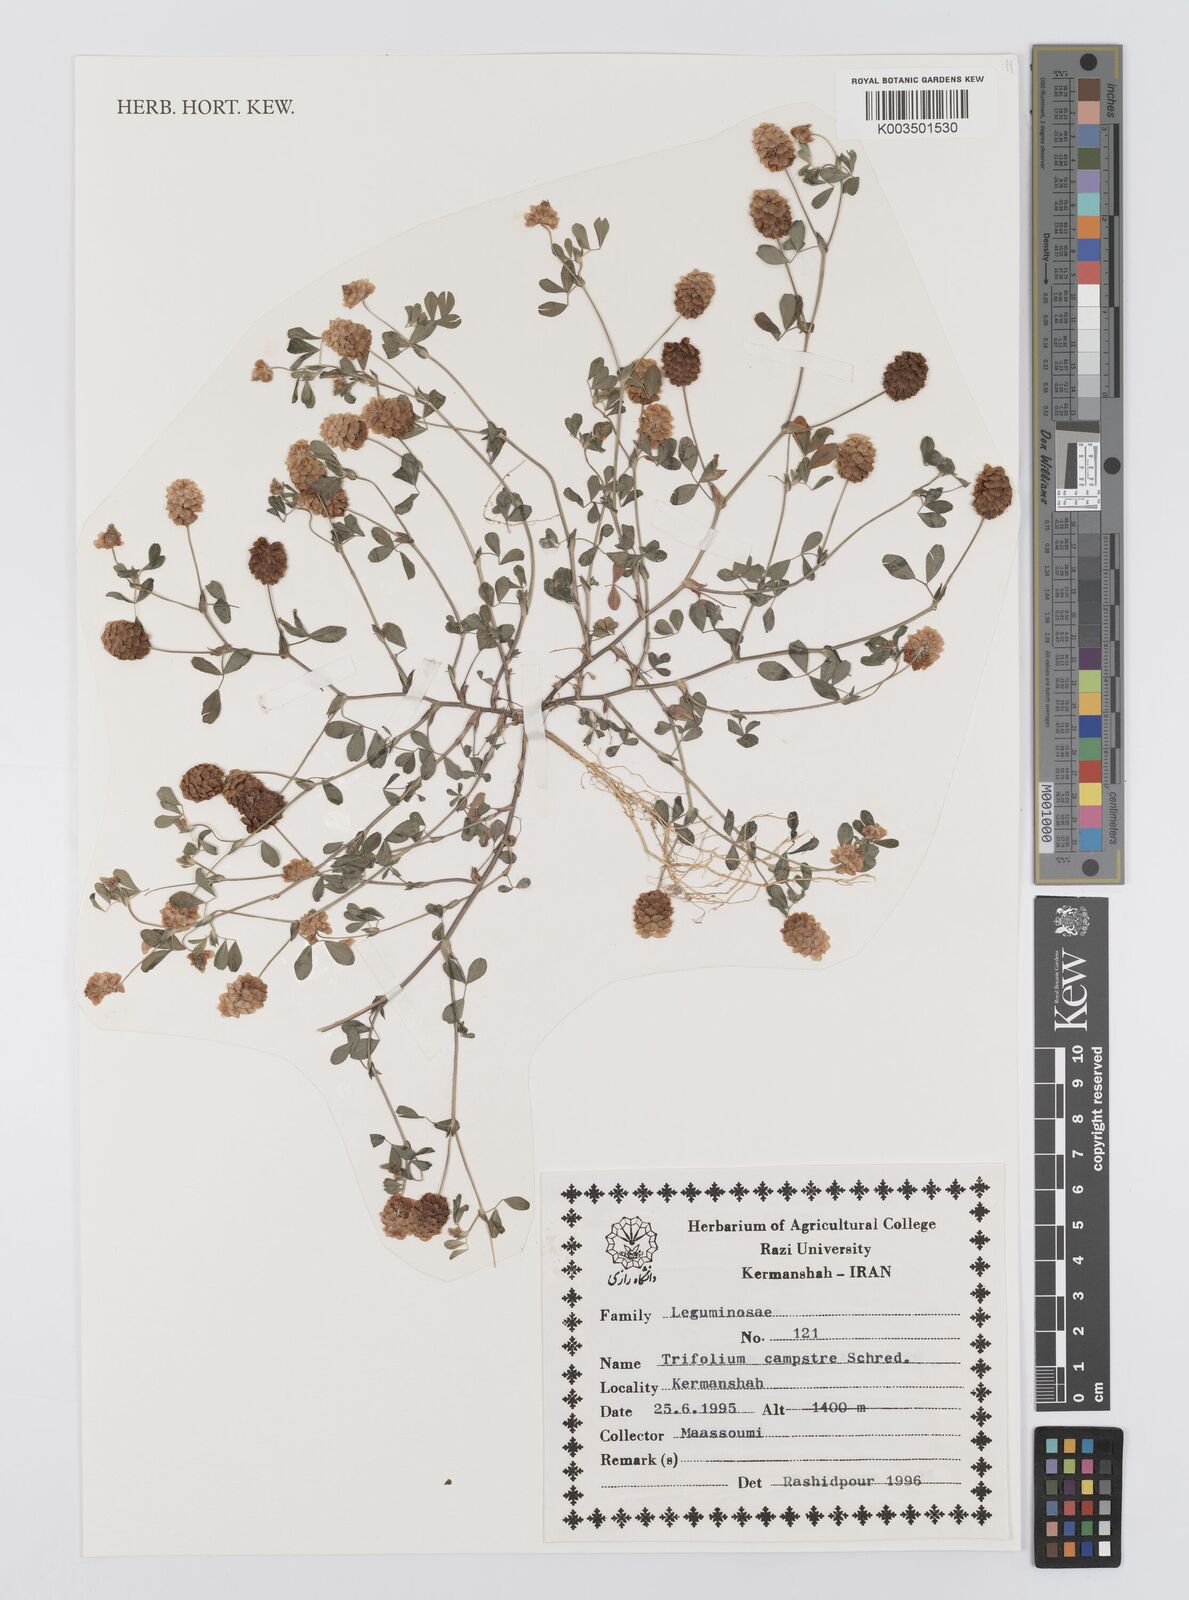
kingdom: Plantae
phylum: Tracheophyta
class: Magnoliopsida
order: Fabales
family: Fabaceae
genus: Trifolium
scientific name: Trifolium campestre
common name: Field clover
